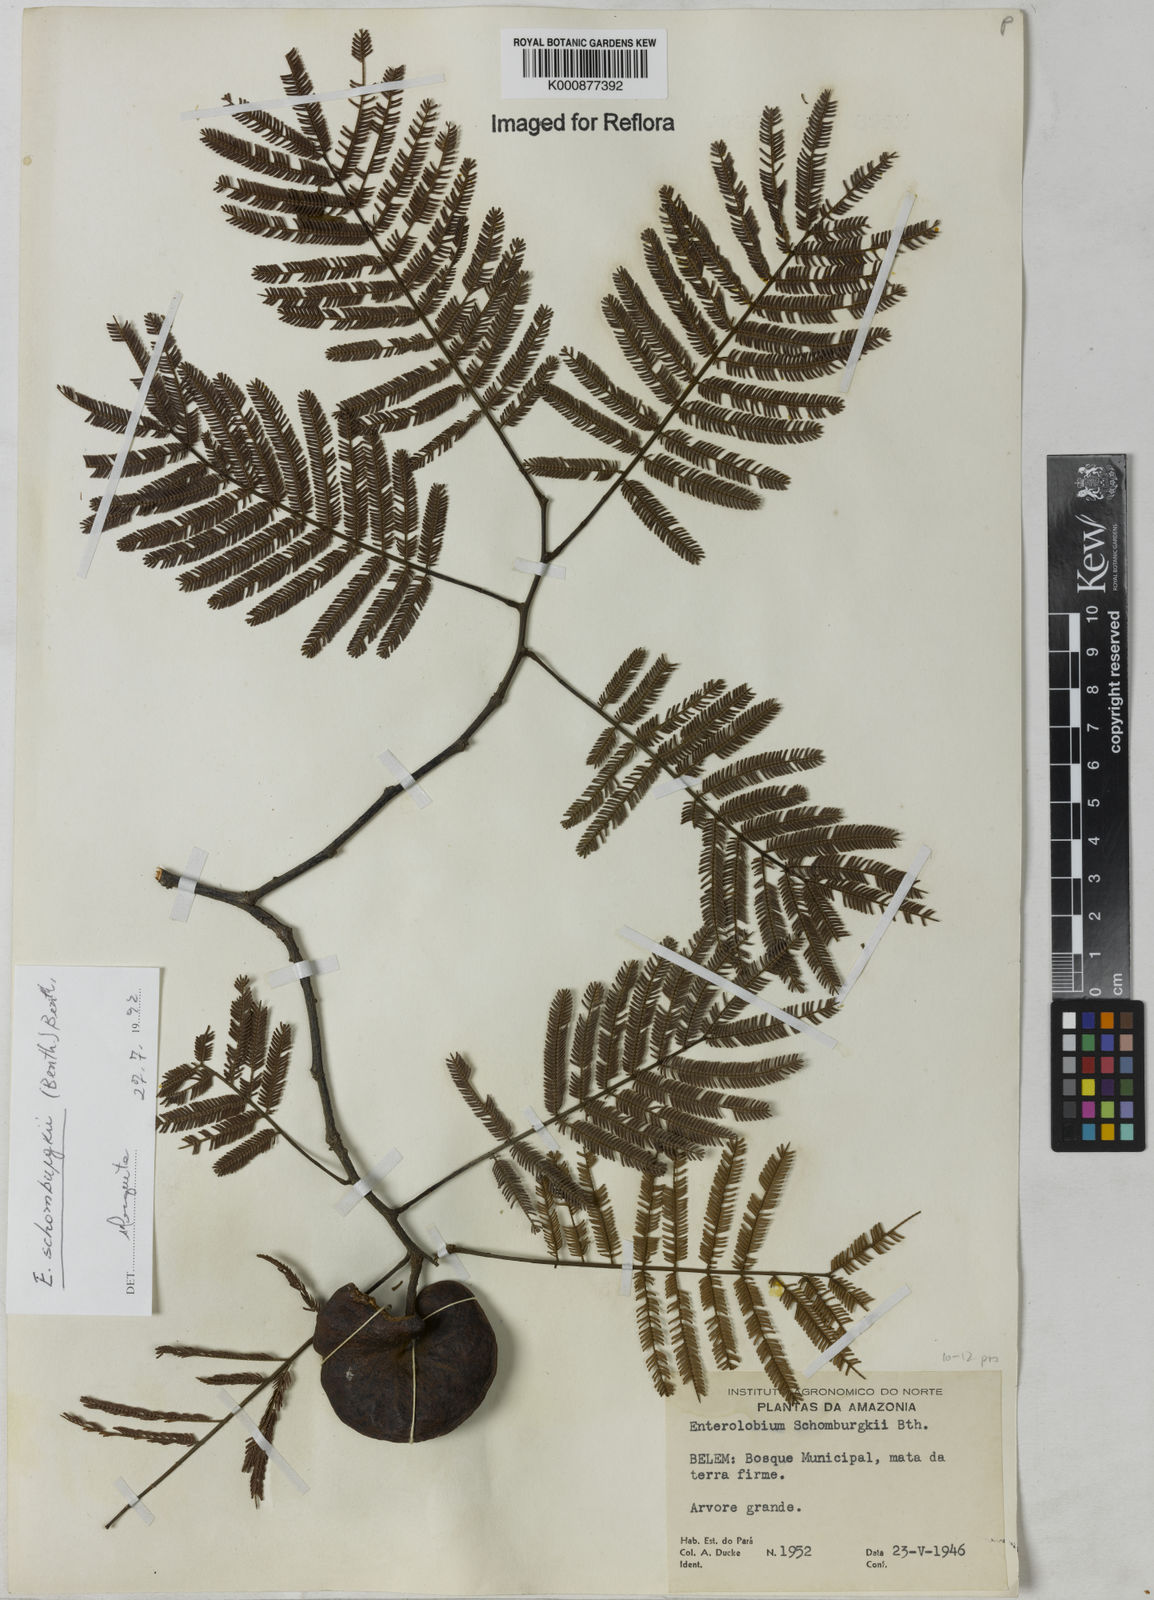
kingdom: Plantae
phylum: Tracheophyta
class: Magnoliopsida
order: Fabales
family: Fabaceae
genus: Enterolobium
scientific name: Enterolobium schomburgkii
